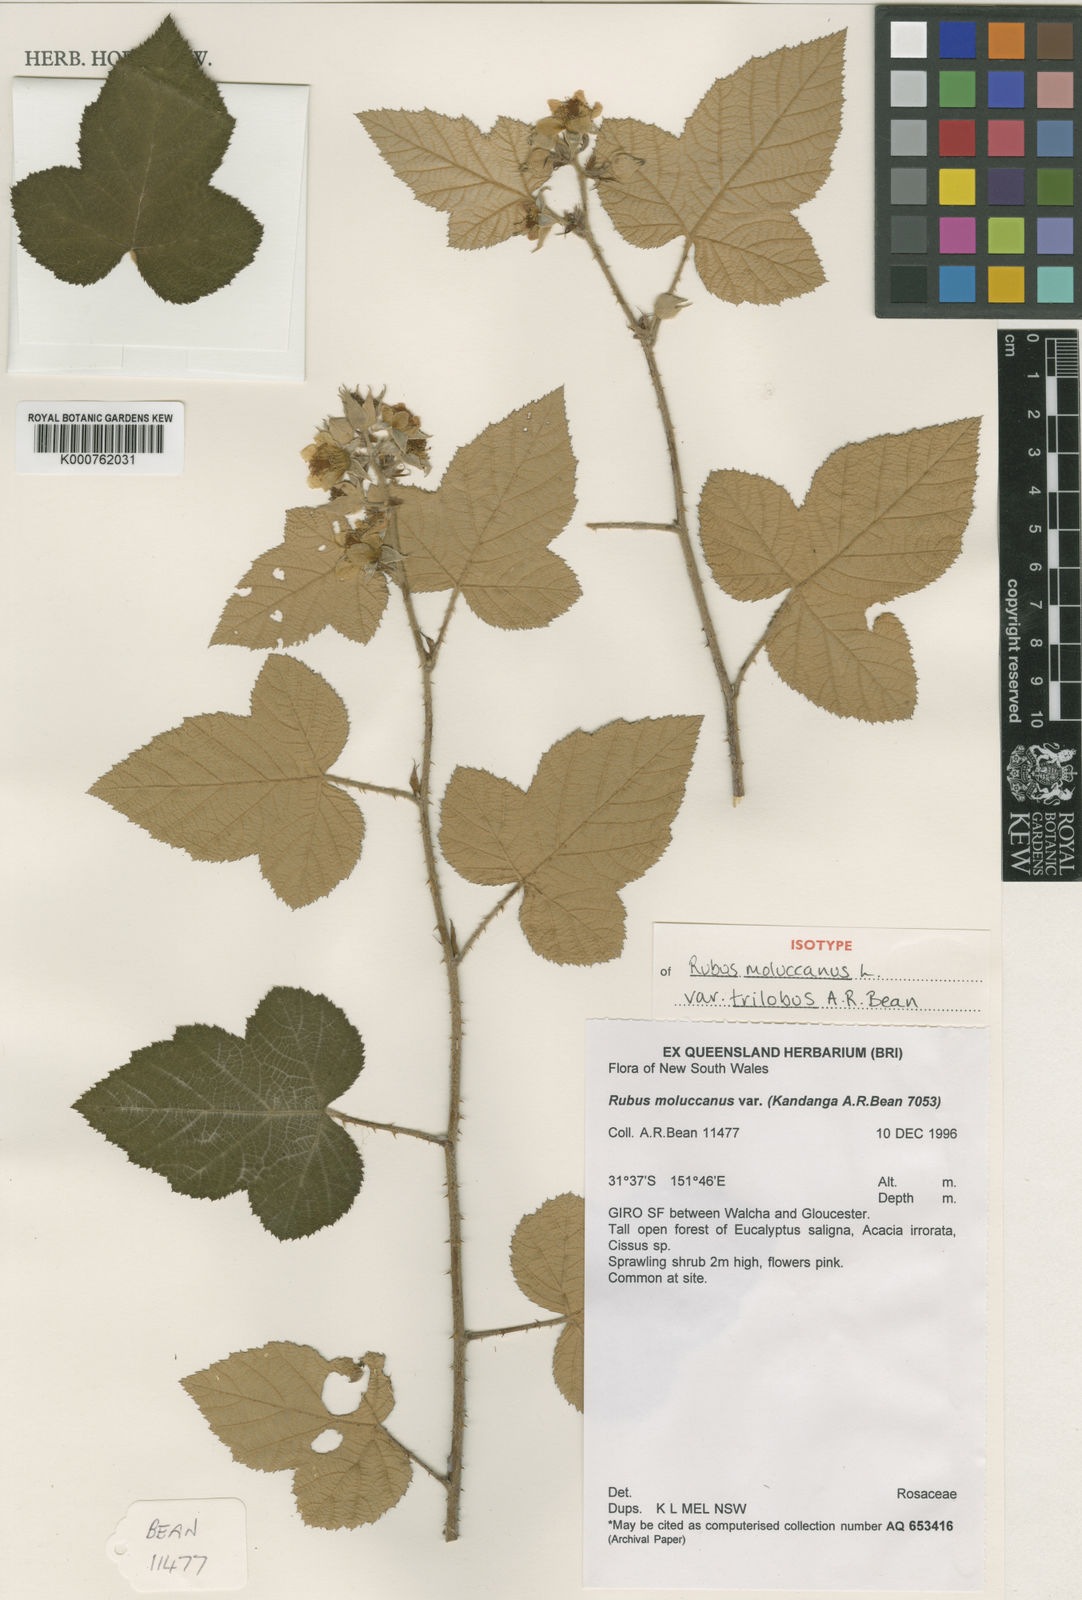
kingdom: Plantae
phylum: Tracheophyta
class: Magnoliopsida
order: Rosales
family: Rosaceae
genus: Rubus
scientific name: Rubus moluccanus
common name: Wild raspberry
